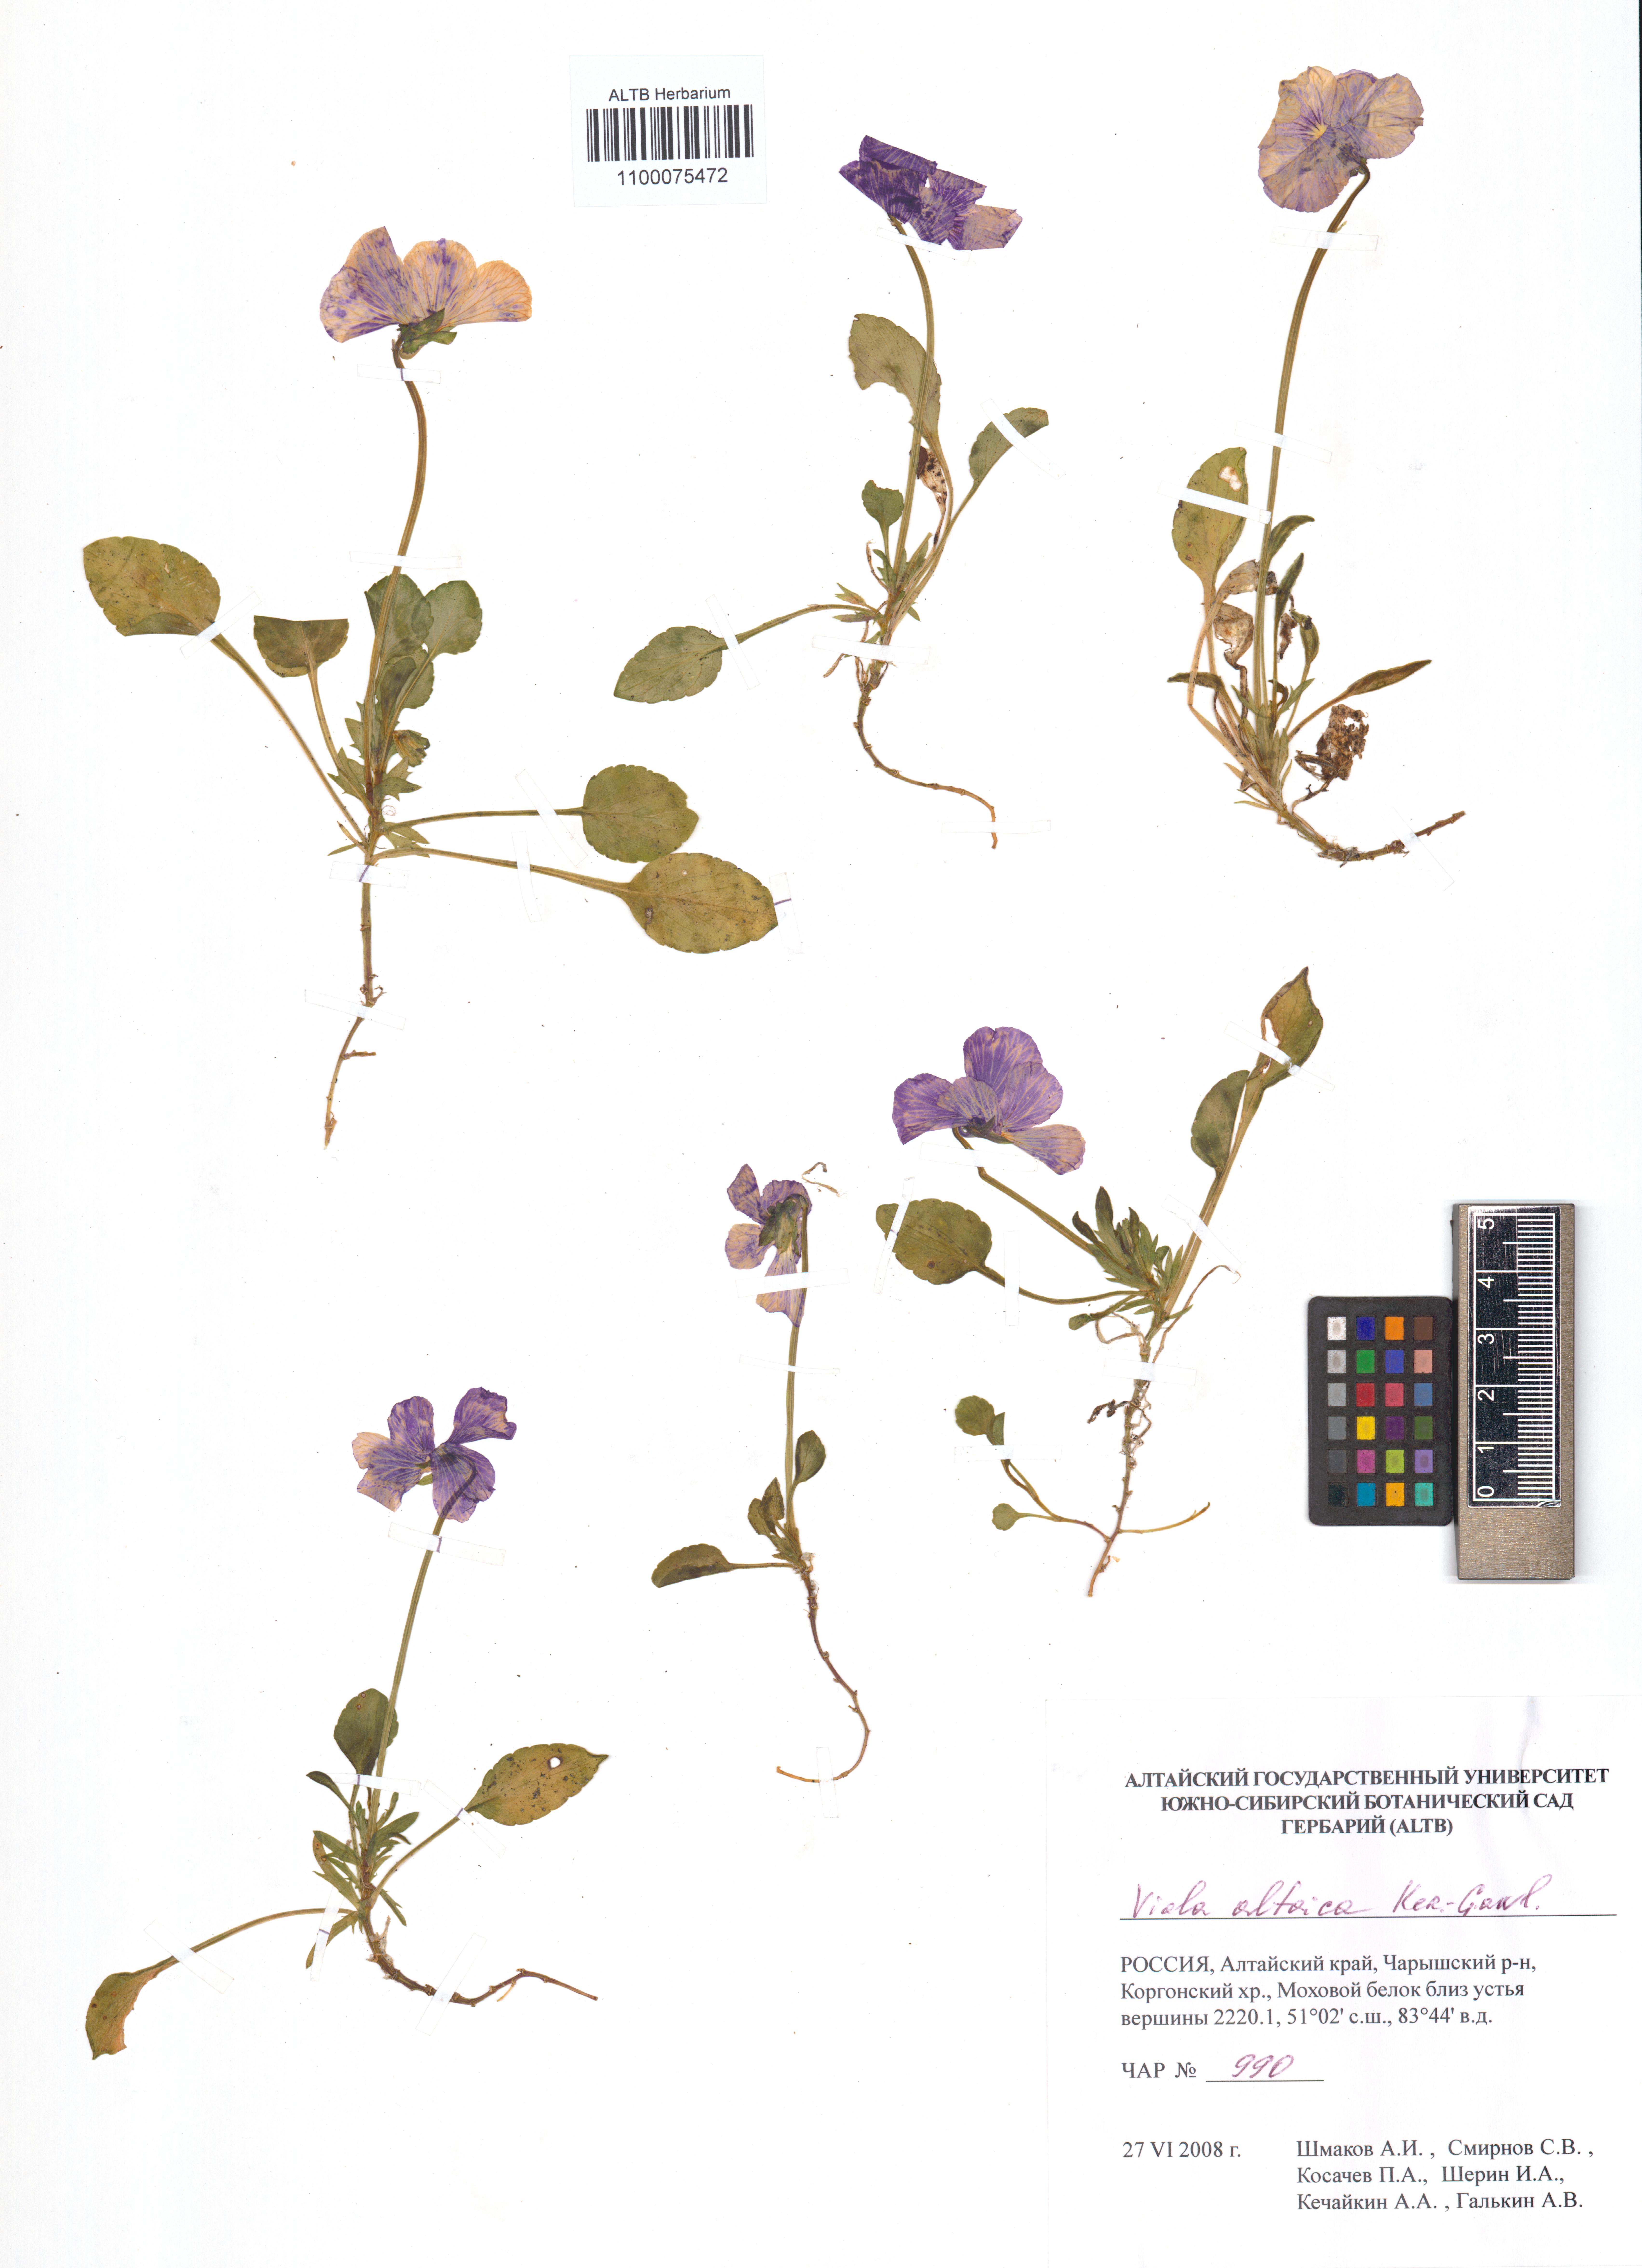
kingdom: Plantae
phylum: Tracheophyta
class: Magnoliopsida
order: Malpighiales
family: Violaceae
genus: Viola
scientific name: Viola altaica
